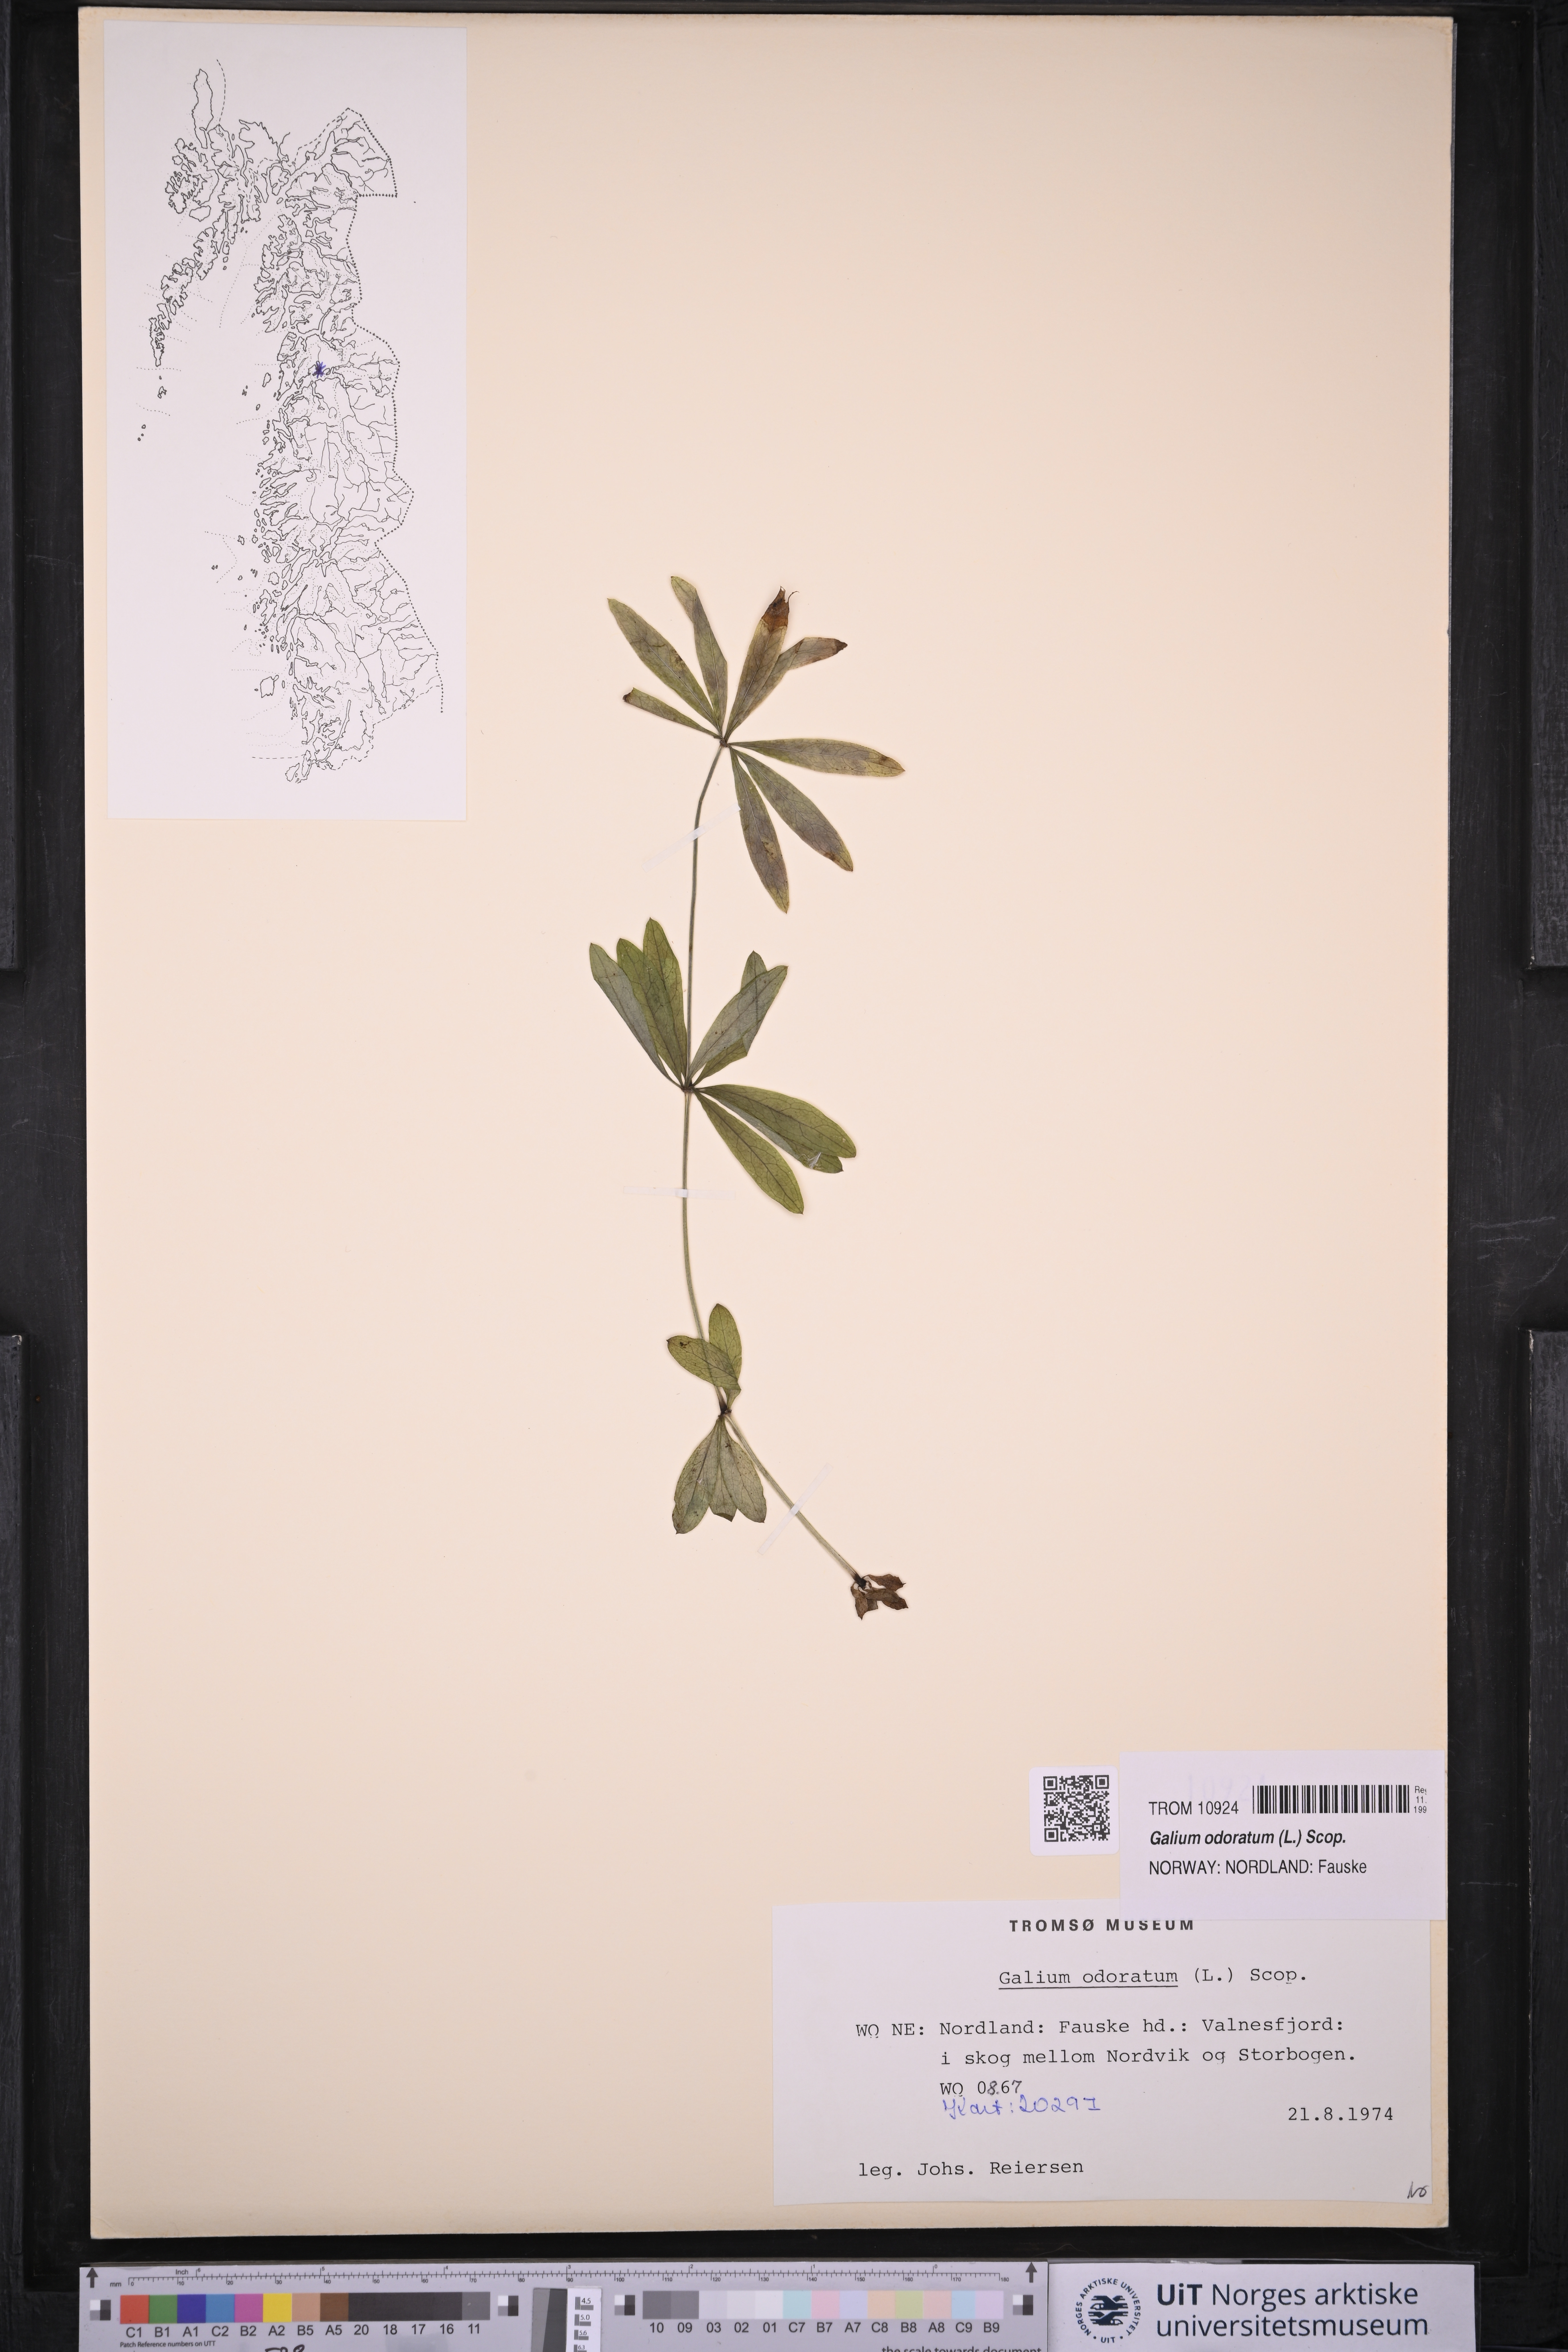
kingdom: Plantae
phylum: Tracheophyta
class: Magnoliopsida
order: Gentianales
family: Rubiaceae
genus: Galium
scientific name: Galium odoratum
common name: Sweet woodruff
